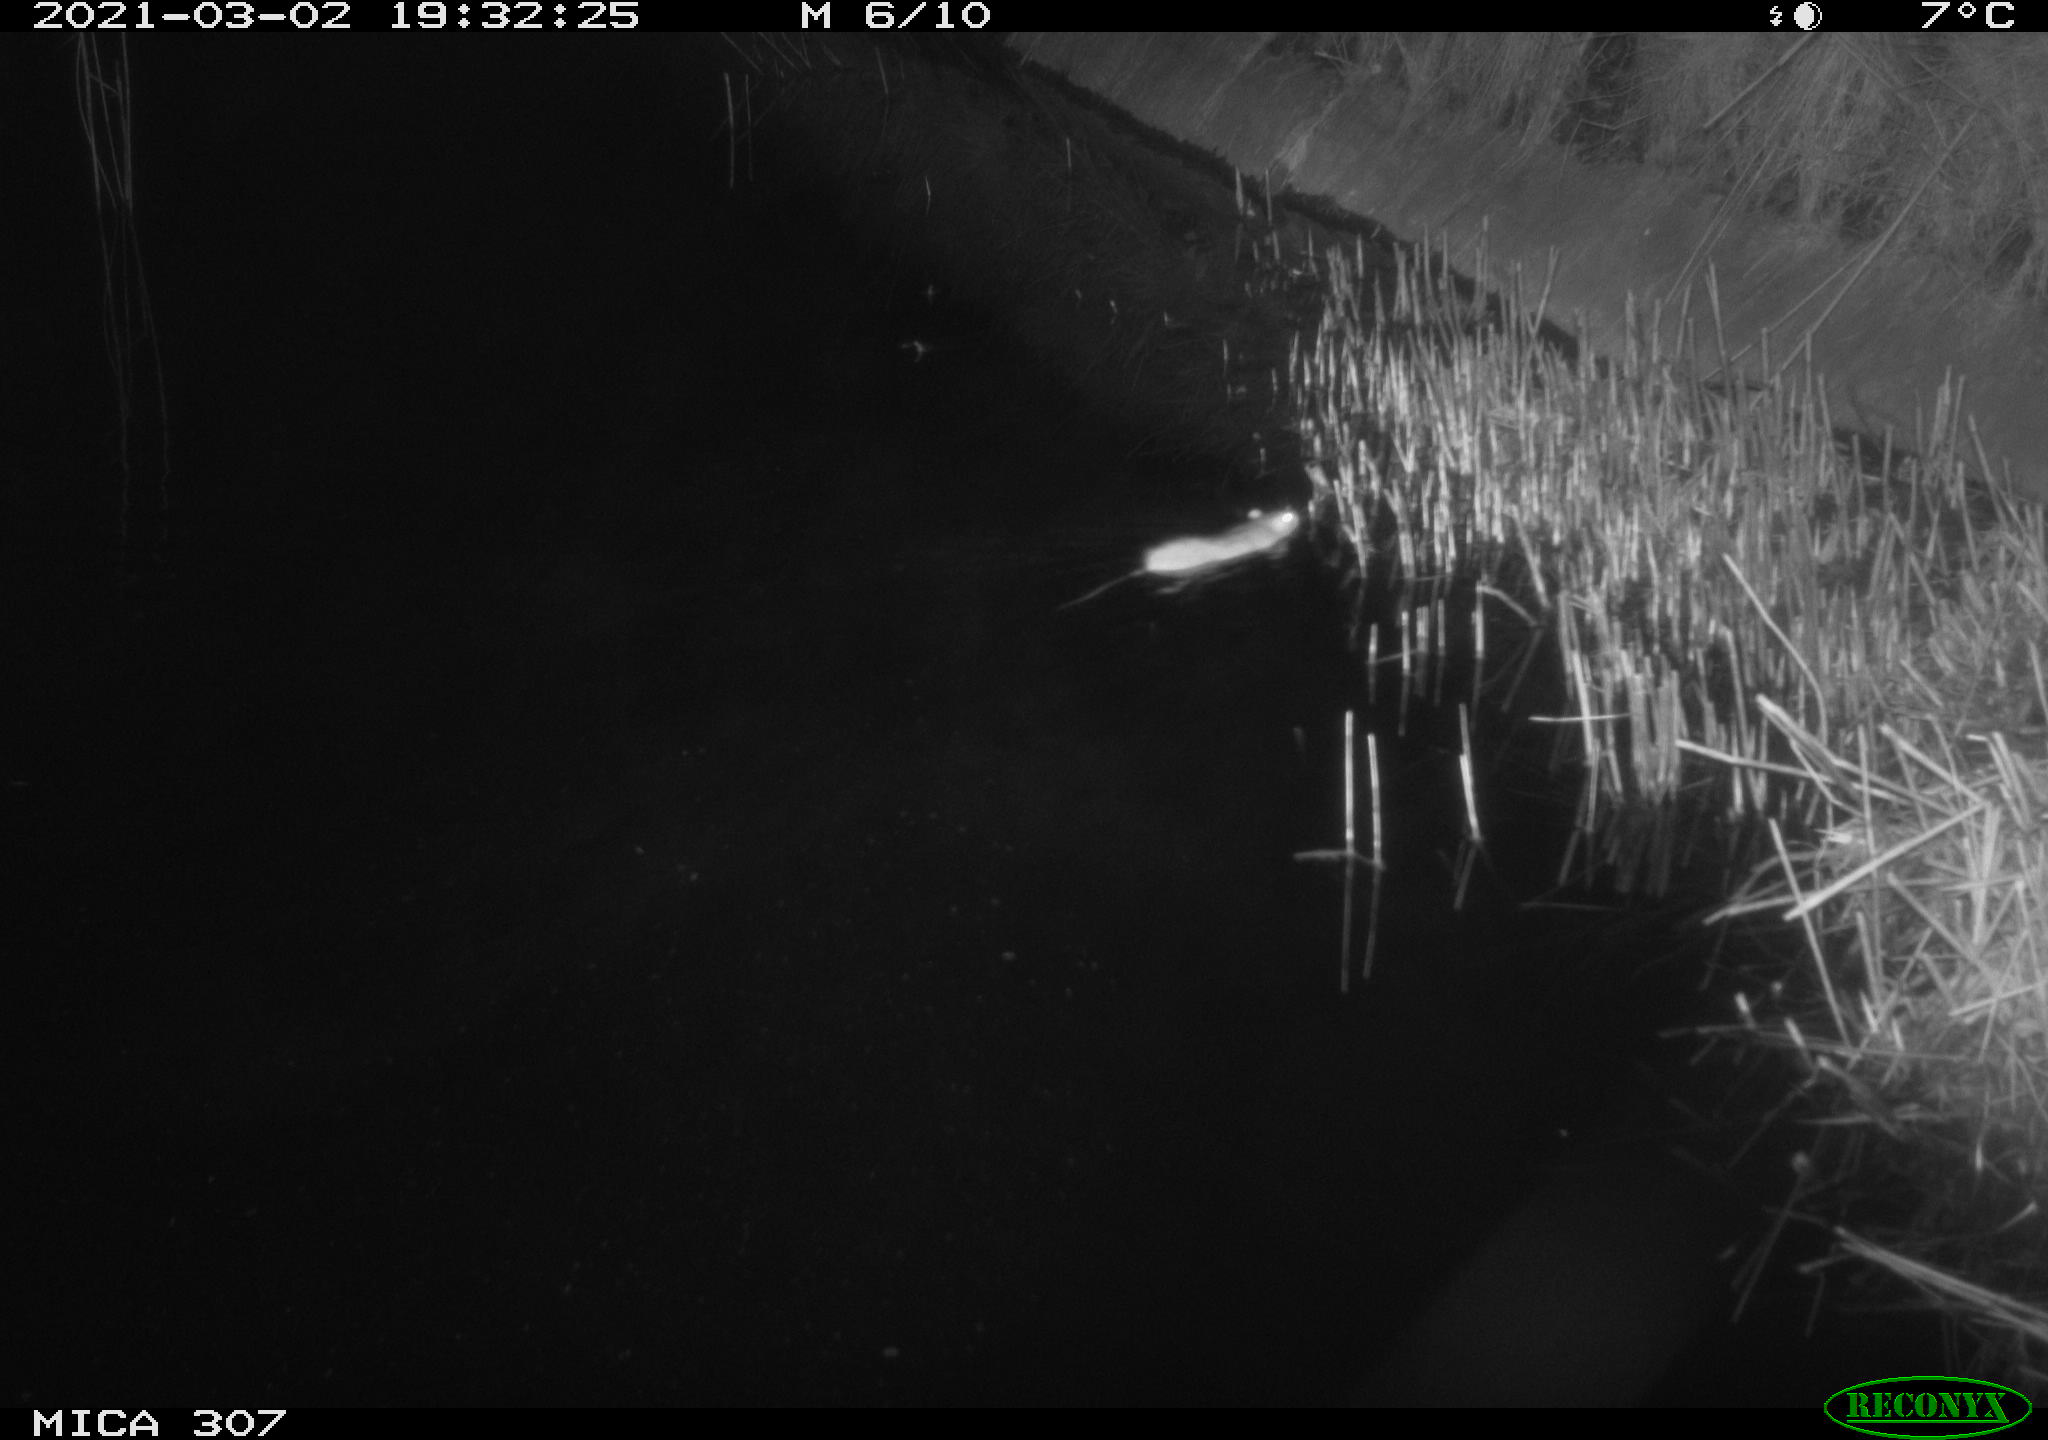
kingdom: Animalia
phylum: Chordata
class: Mammalia
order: Rodentia
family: Muridae
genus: Rattus
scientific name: Rattus norvegicus
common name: Brown rat
